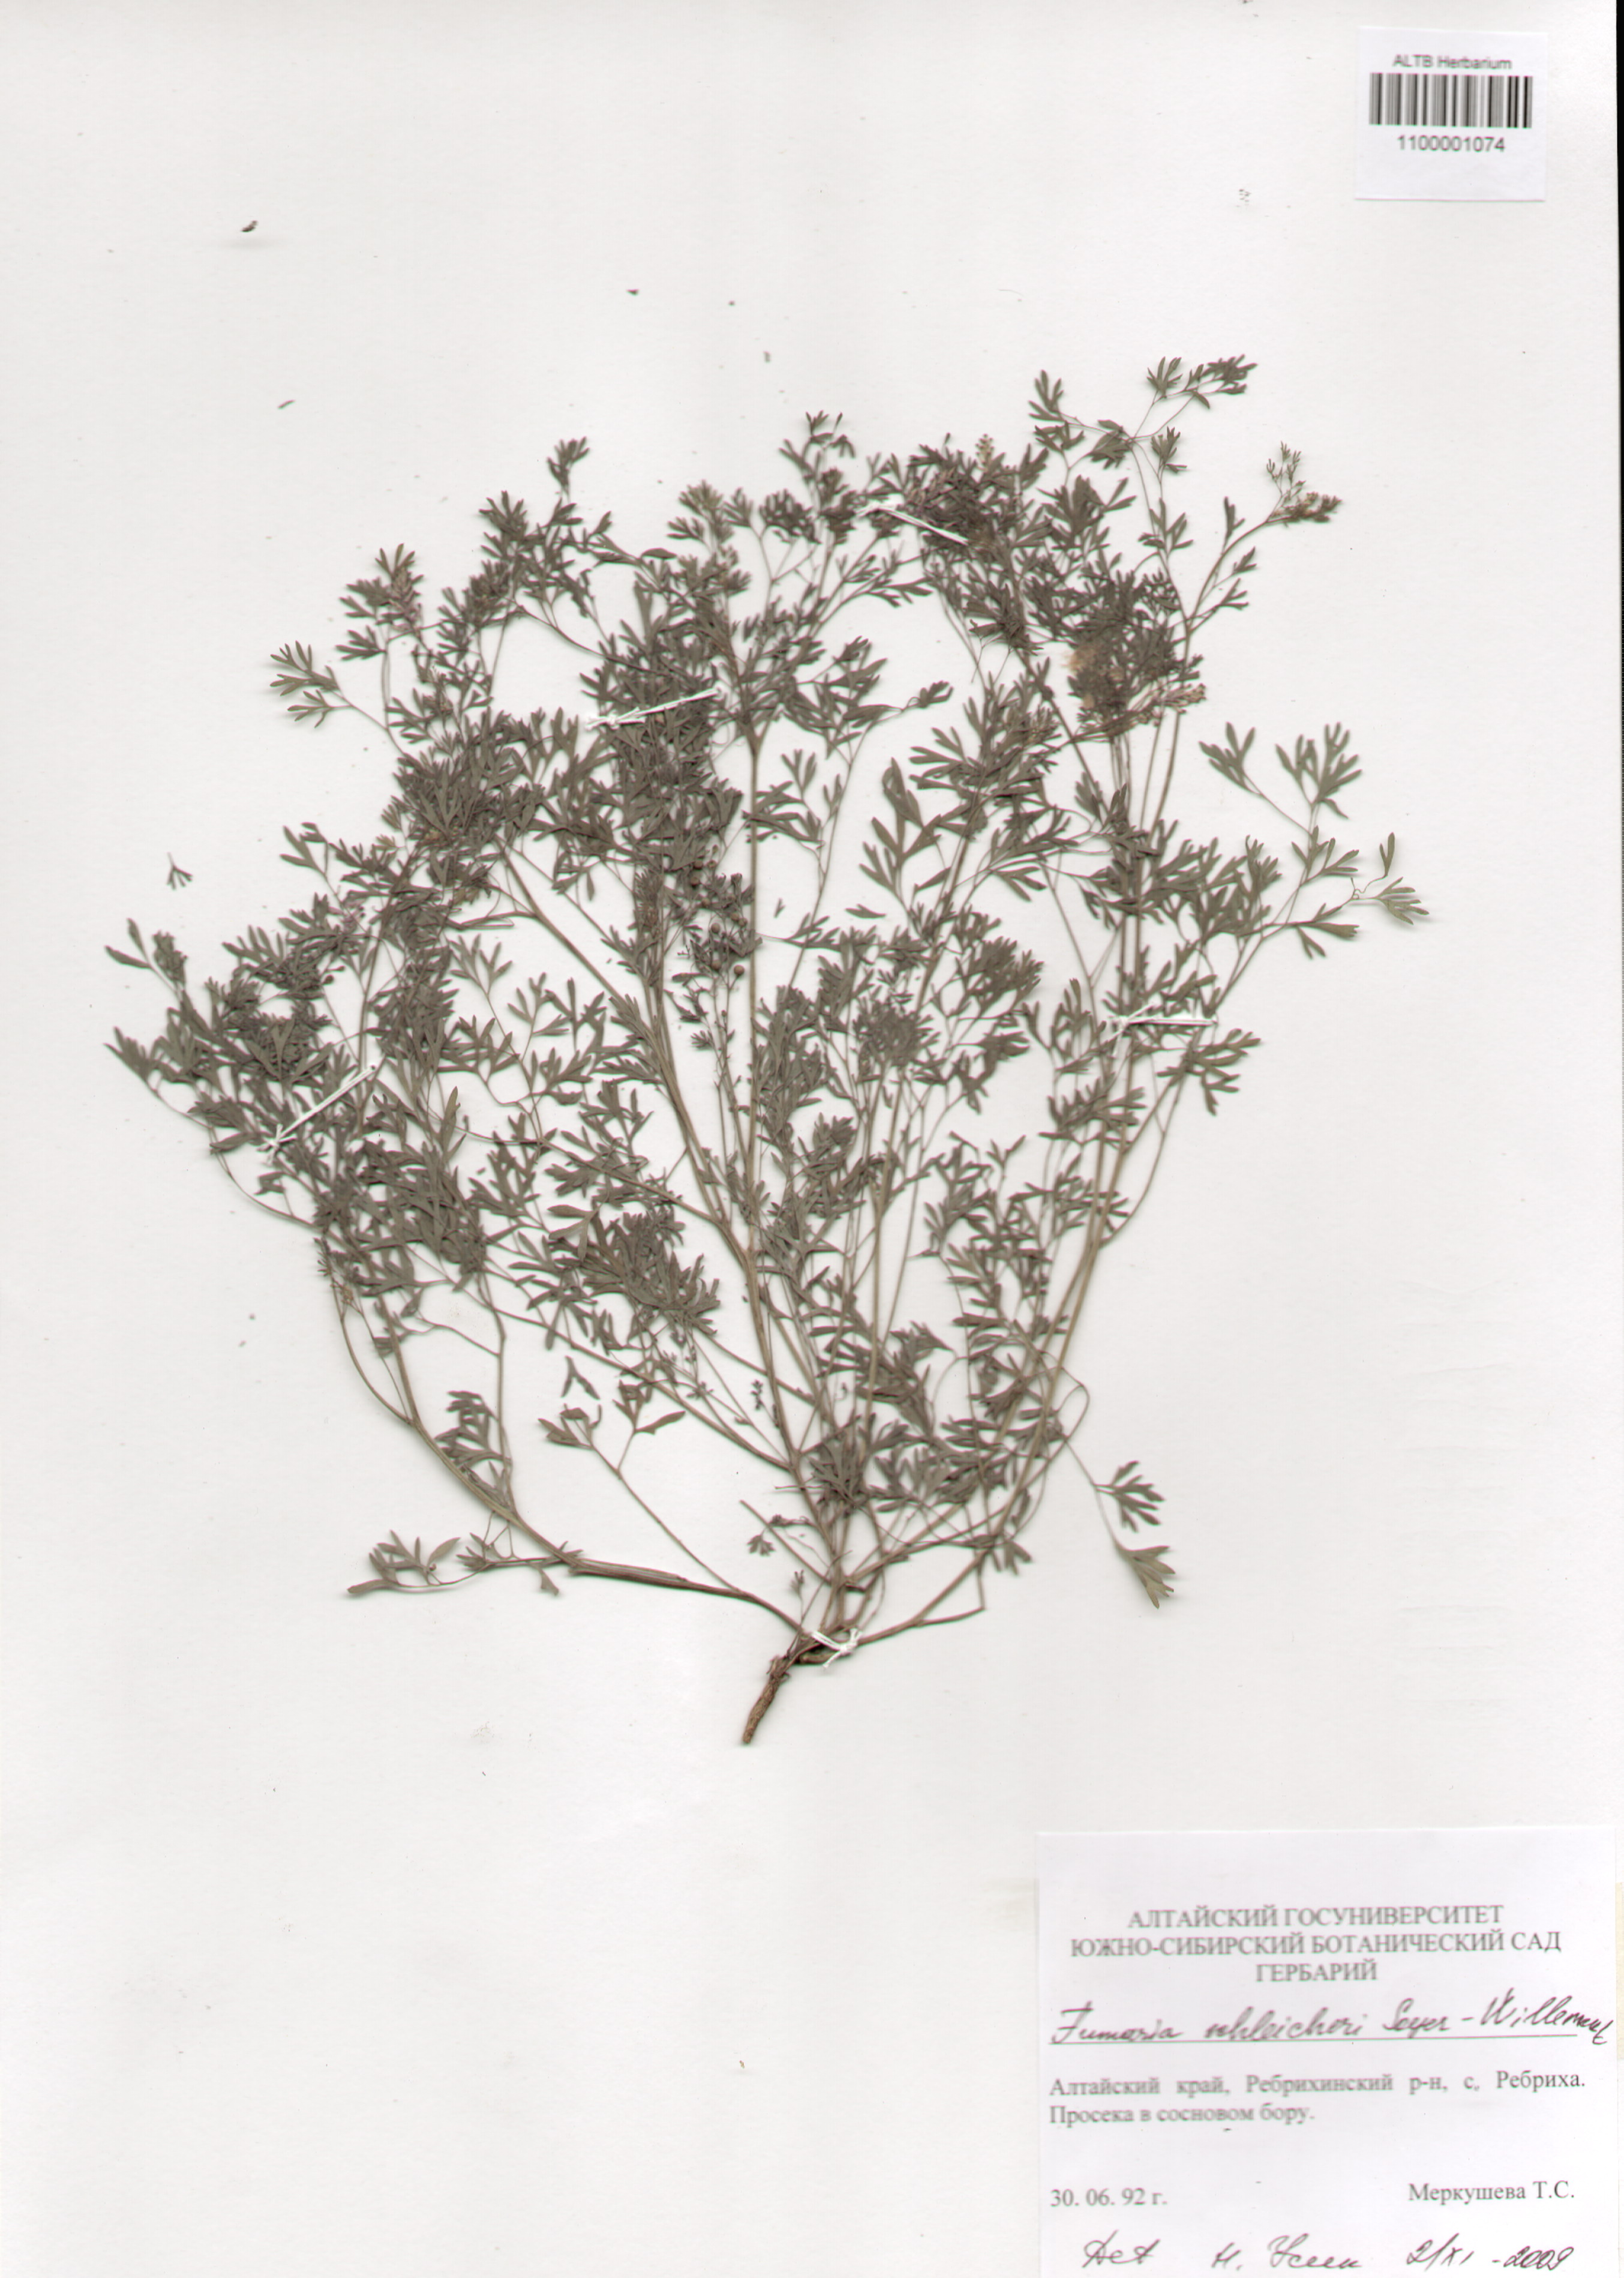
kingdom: Plantae
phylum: Tracheophyta
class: Magnoliopsida
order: Ranunculales
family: Papaveraceae
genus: Fumaria
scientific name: Fumaria schleicheri
